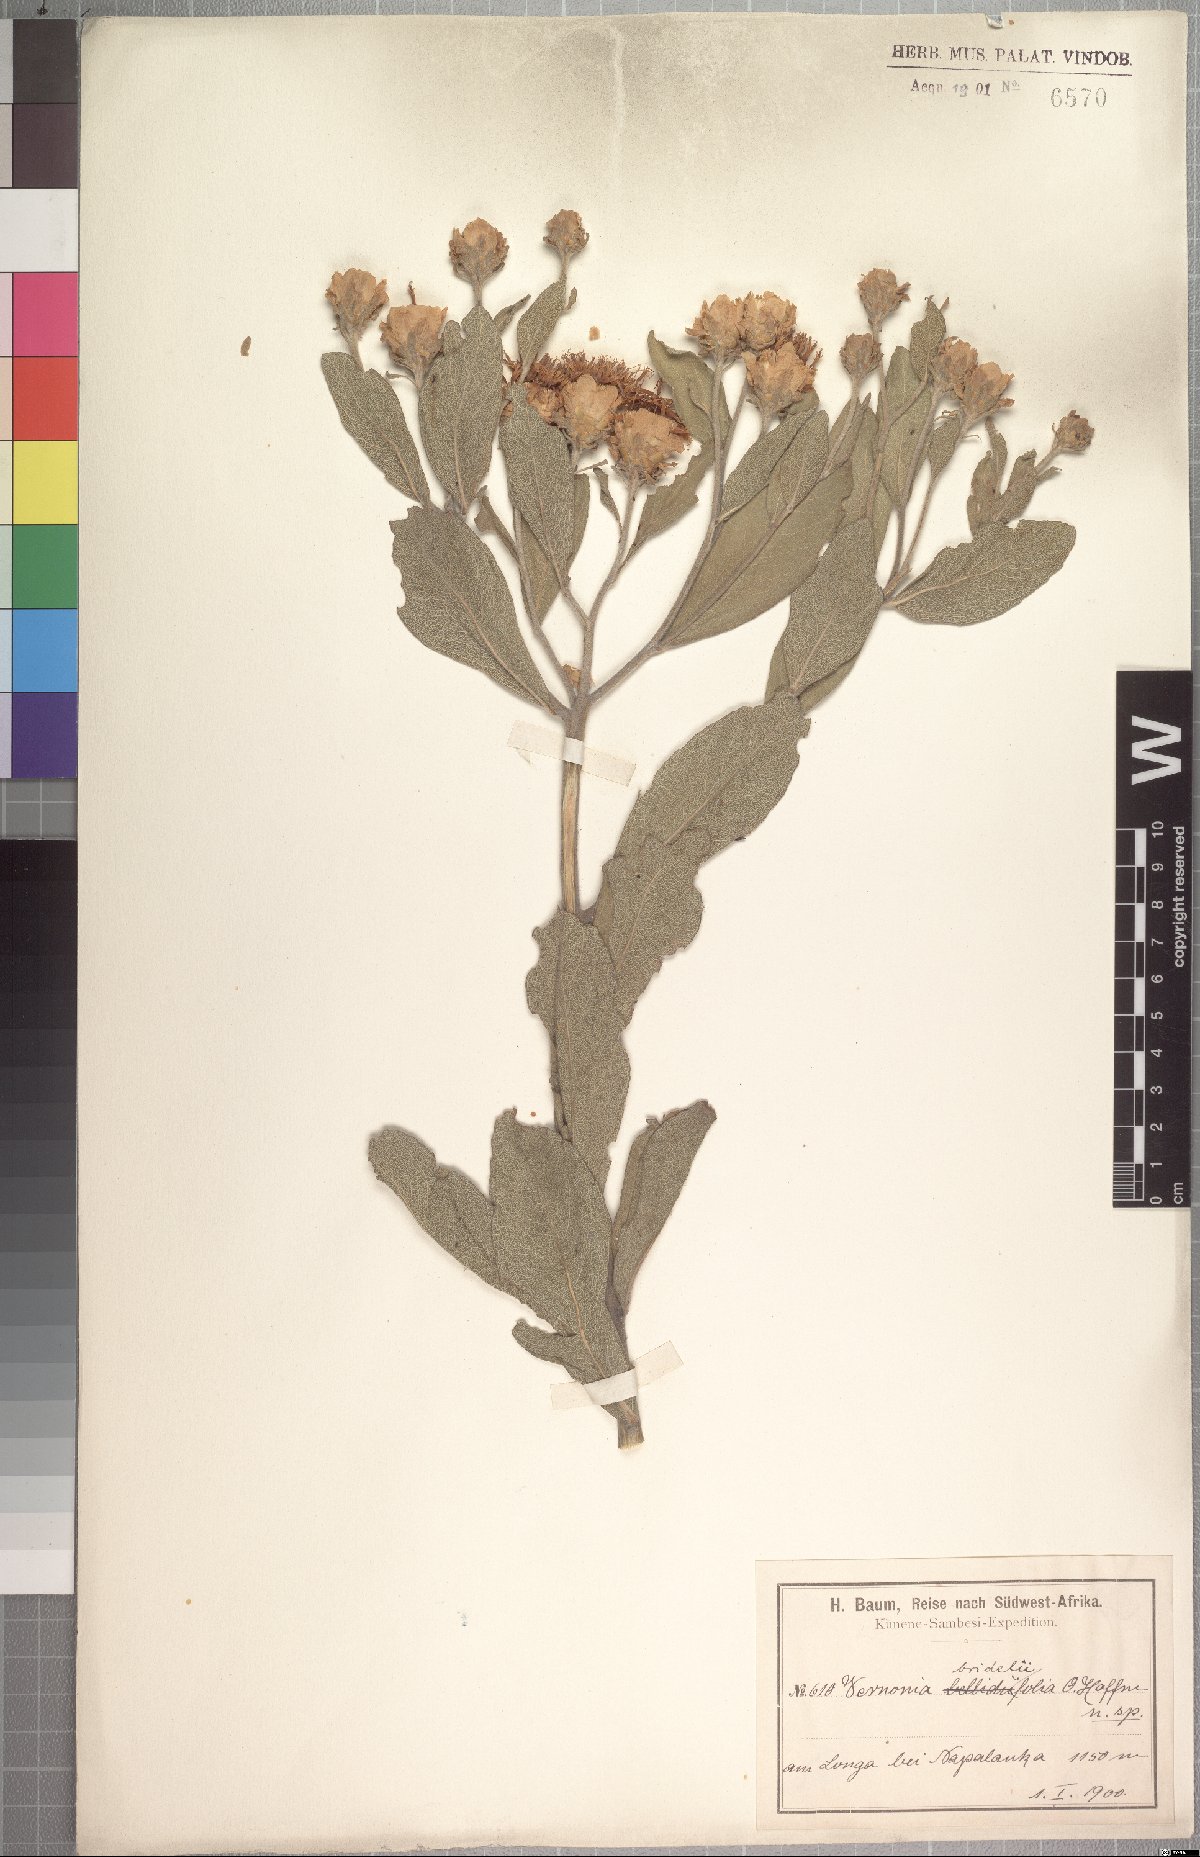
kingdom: Plantae
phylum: Tracheophyta
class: Magnoliopsida
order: Asterales
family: Asteraceae
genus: Vernonia
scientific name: Vernonia brideliifolia
